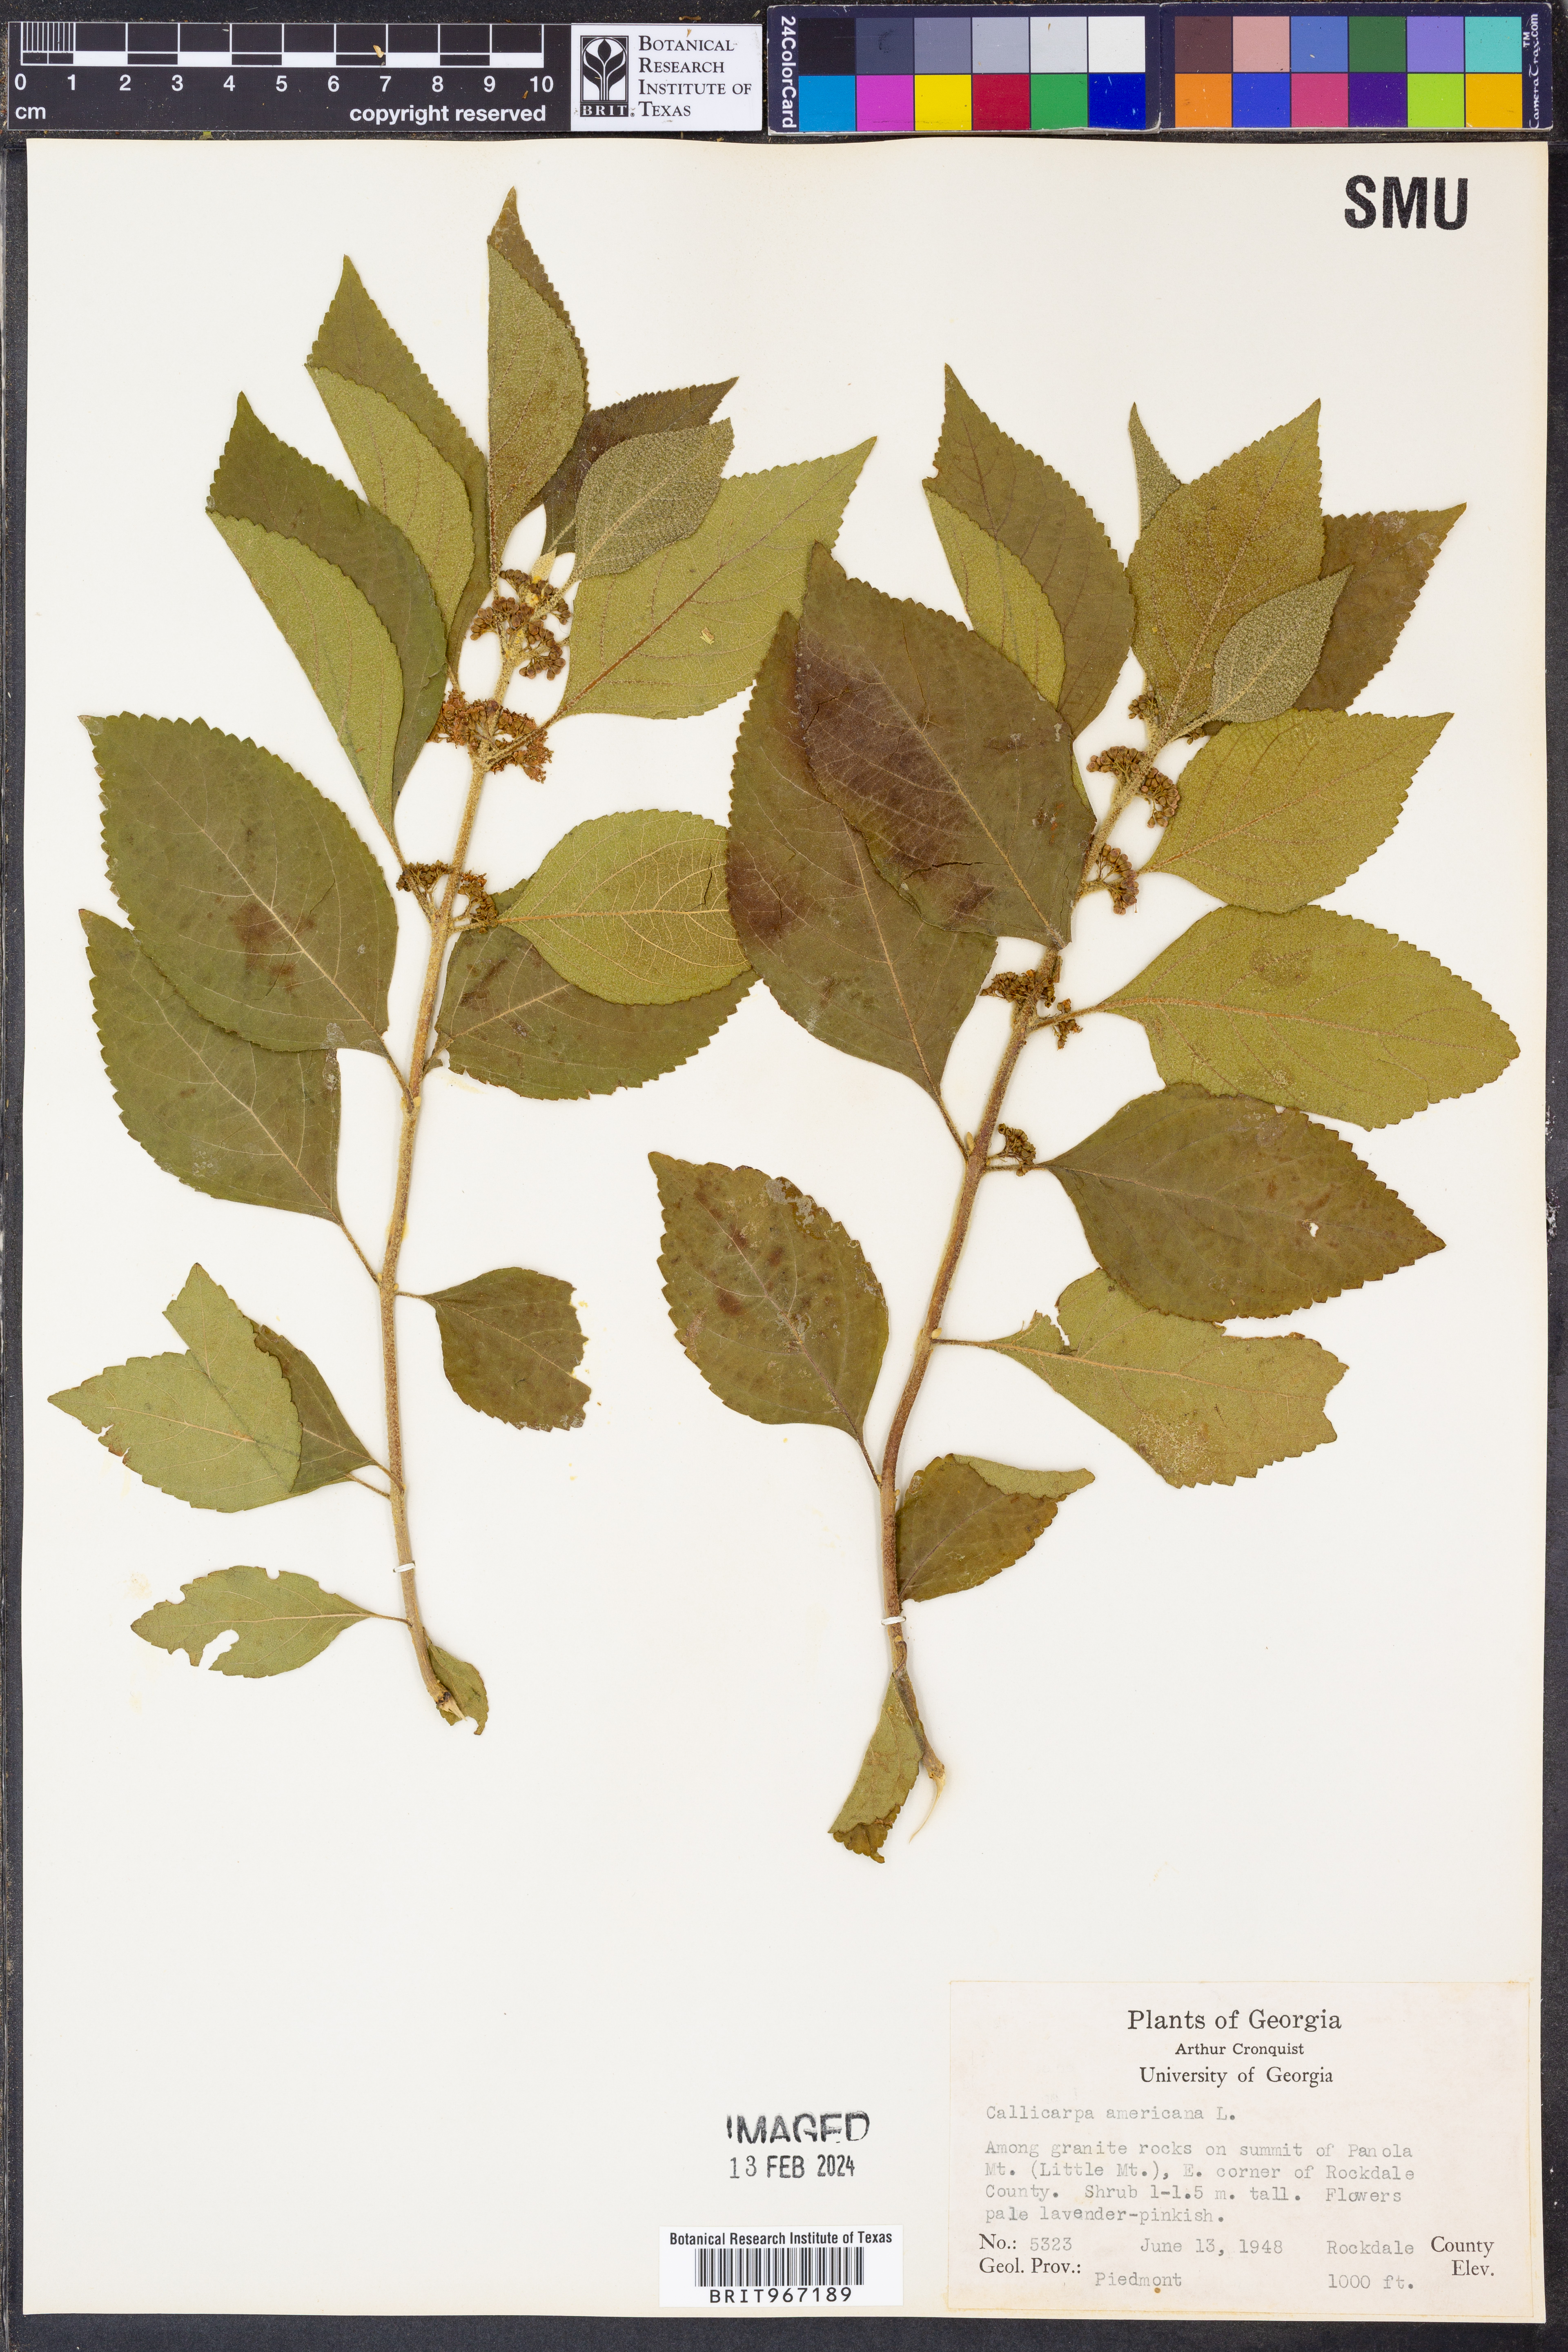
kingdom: Plantae
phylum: Tracheophyta
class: Magnoliopsida
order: Lamiales
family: Lamiaceae
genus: Callicarpa
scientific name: Callicarpa americana
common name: American beautyberry
